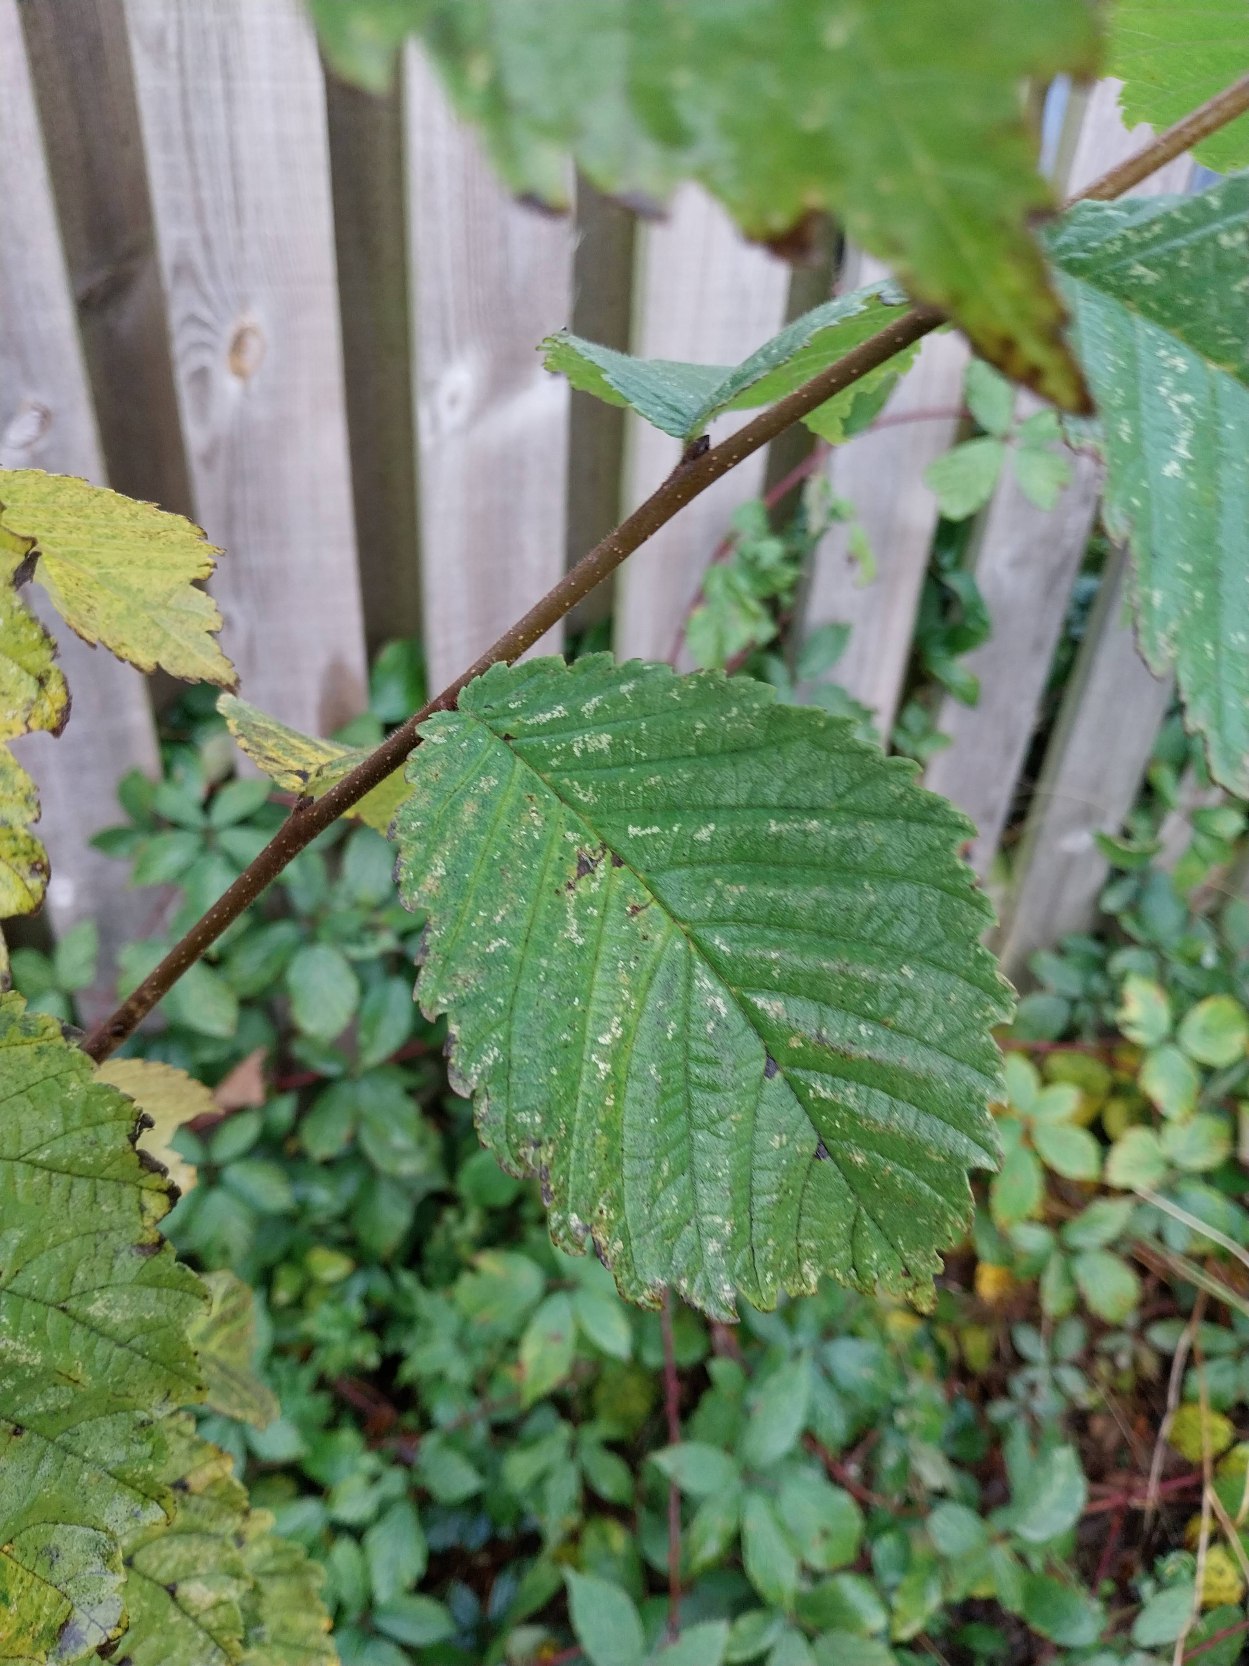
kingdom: Plantae
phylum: Tracheophyta
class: Magnoliopsida
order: Rosales
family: Ulmaceae
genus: Ulmus
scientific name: Ulmus glabra
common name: Skov-elm/storbladet elm
